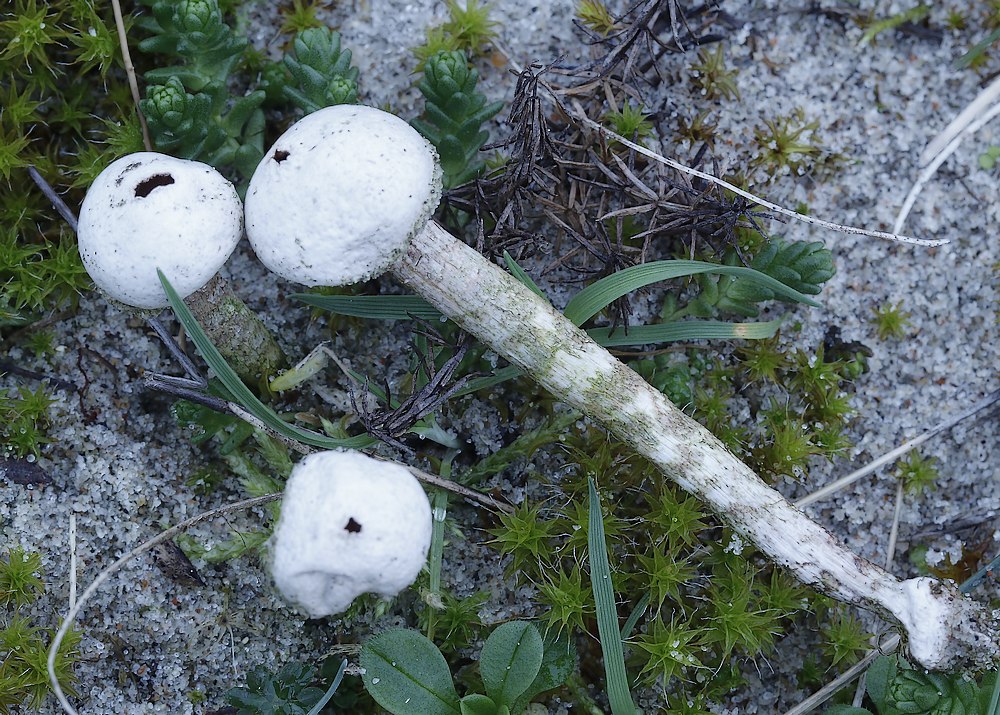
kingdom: Fungi
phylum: Basidiomycota
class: Agaricomycetes
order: Agaricales
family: Agaricaceae
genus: Tulostoma
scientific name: Tulostoma fimbriatum
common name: frynset stilkbovist
